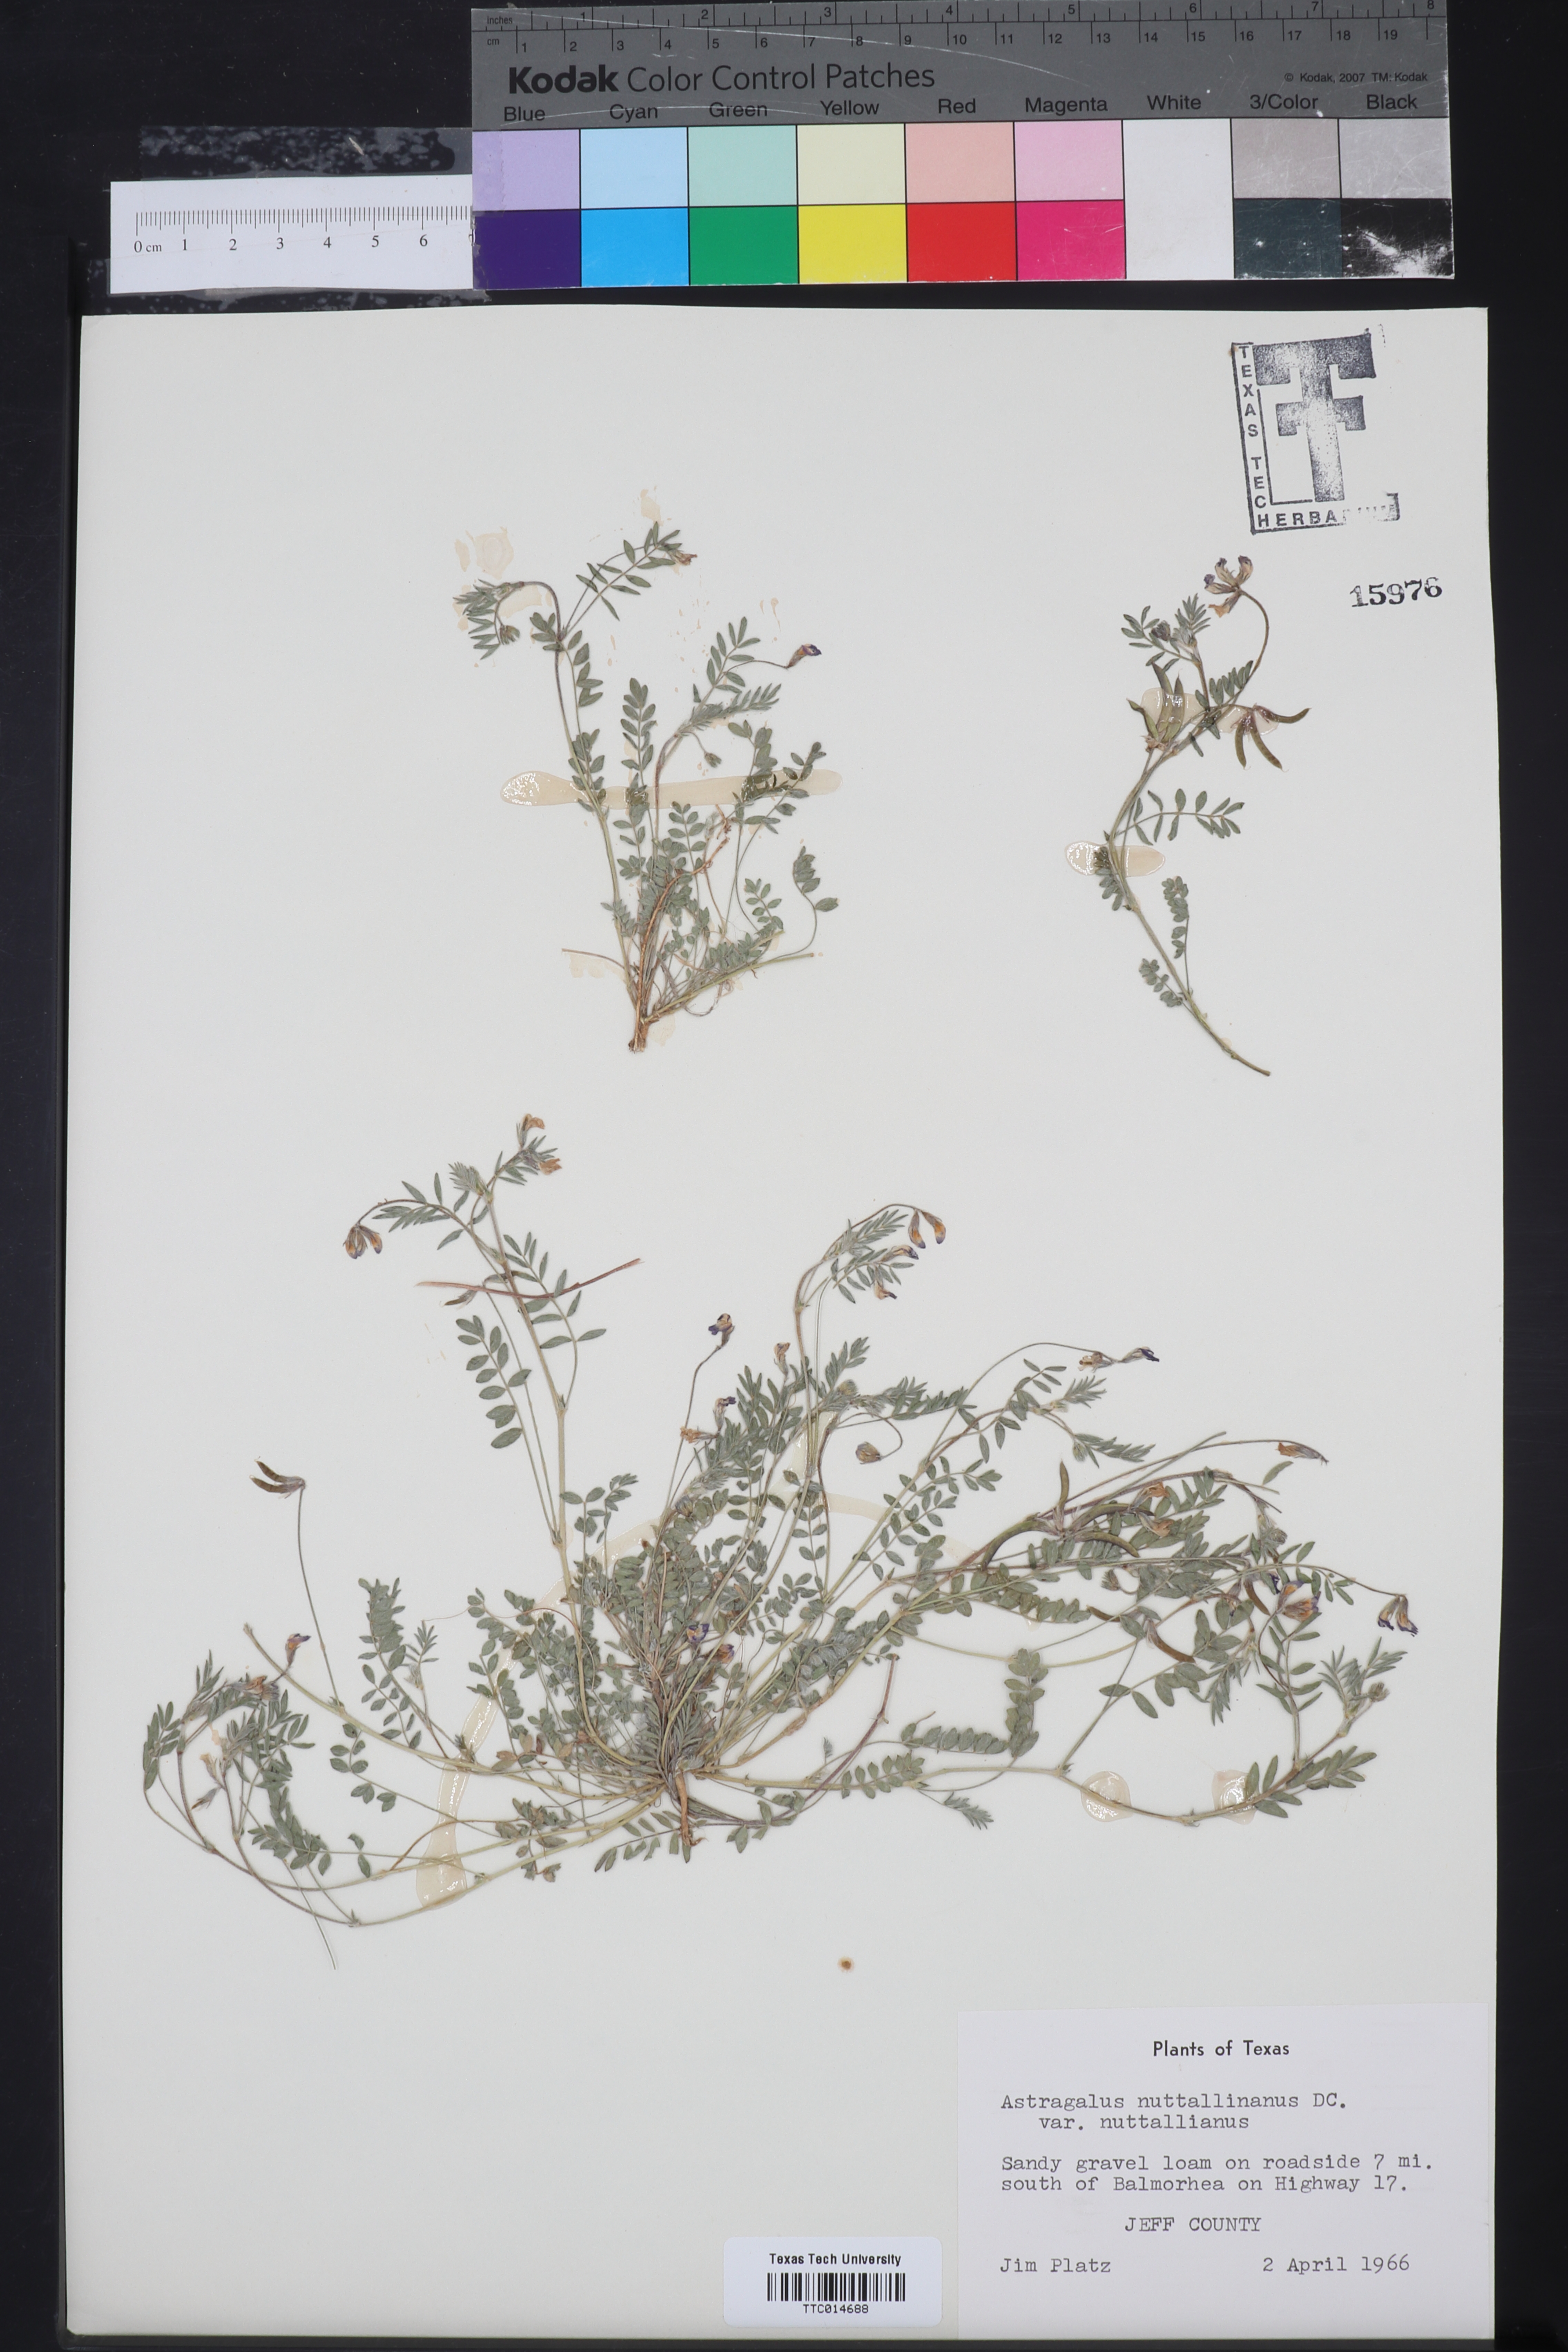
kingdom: Plantae
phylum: Tracheophyta
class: Magnoliopsida
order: Fabales
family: Fabaceae
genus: Astragalus
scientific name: Astragalus nuttallianus
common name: Smallflowered milkvetch
